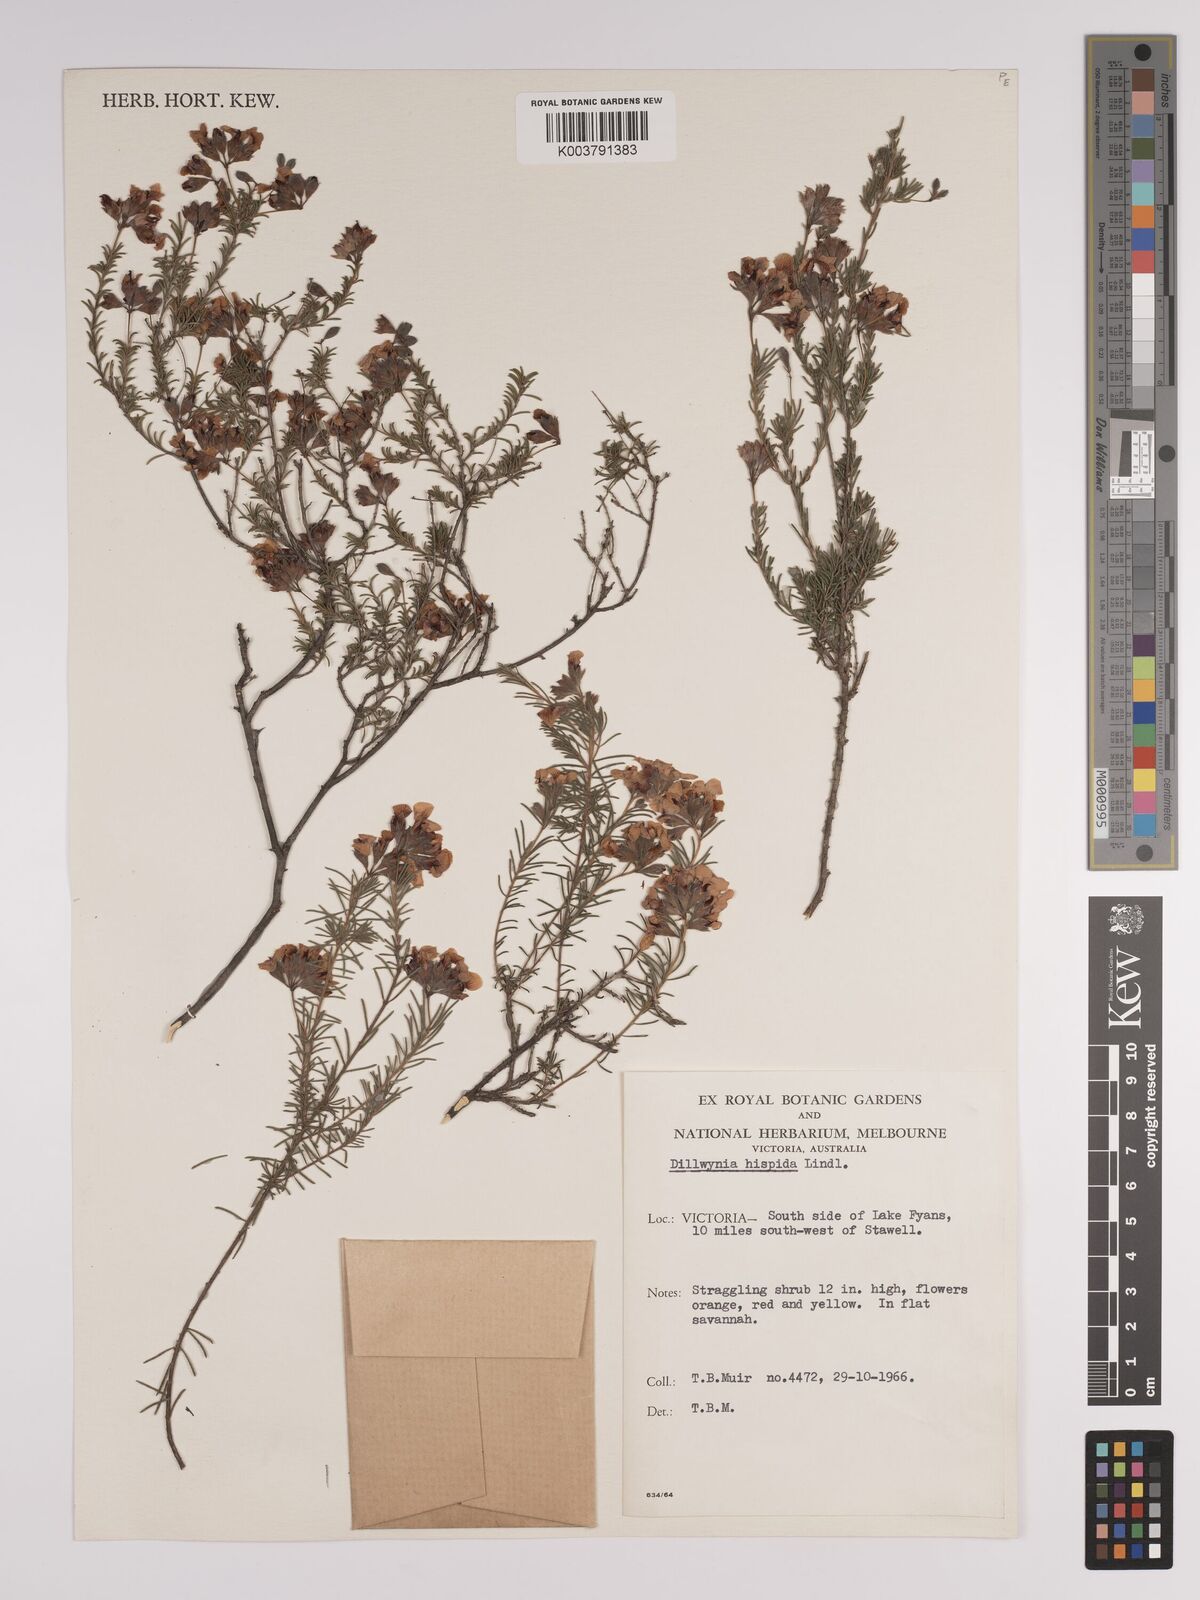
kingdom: Plantae
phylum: Tracheophyta
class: Magnoliopsida
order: Fabales
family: Fabaceae
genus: Dillwynia
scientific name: Dillwynia hispida
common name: Red parrot-pea
